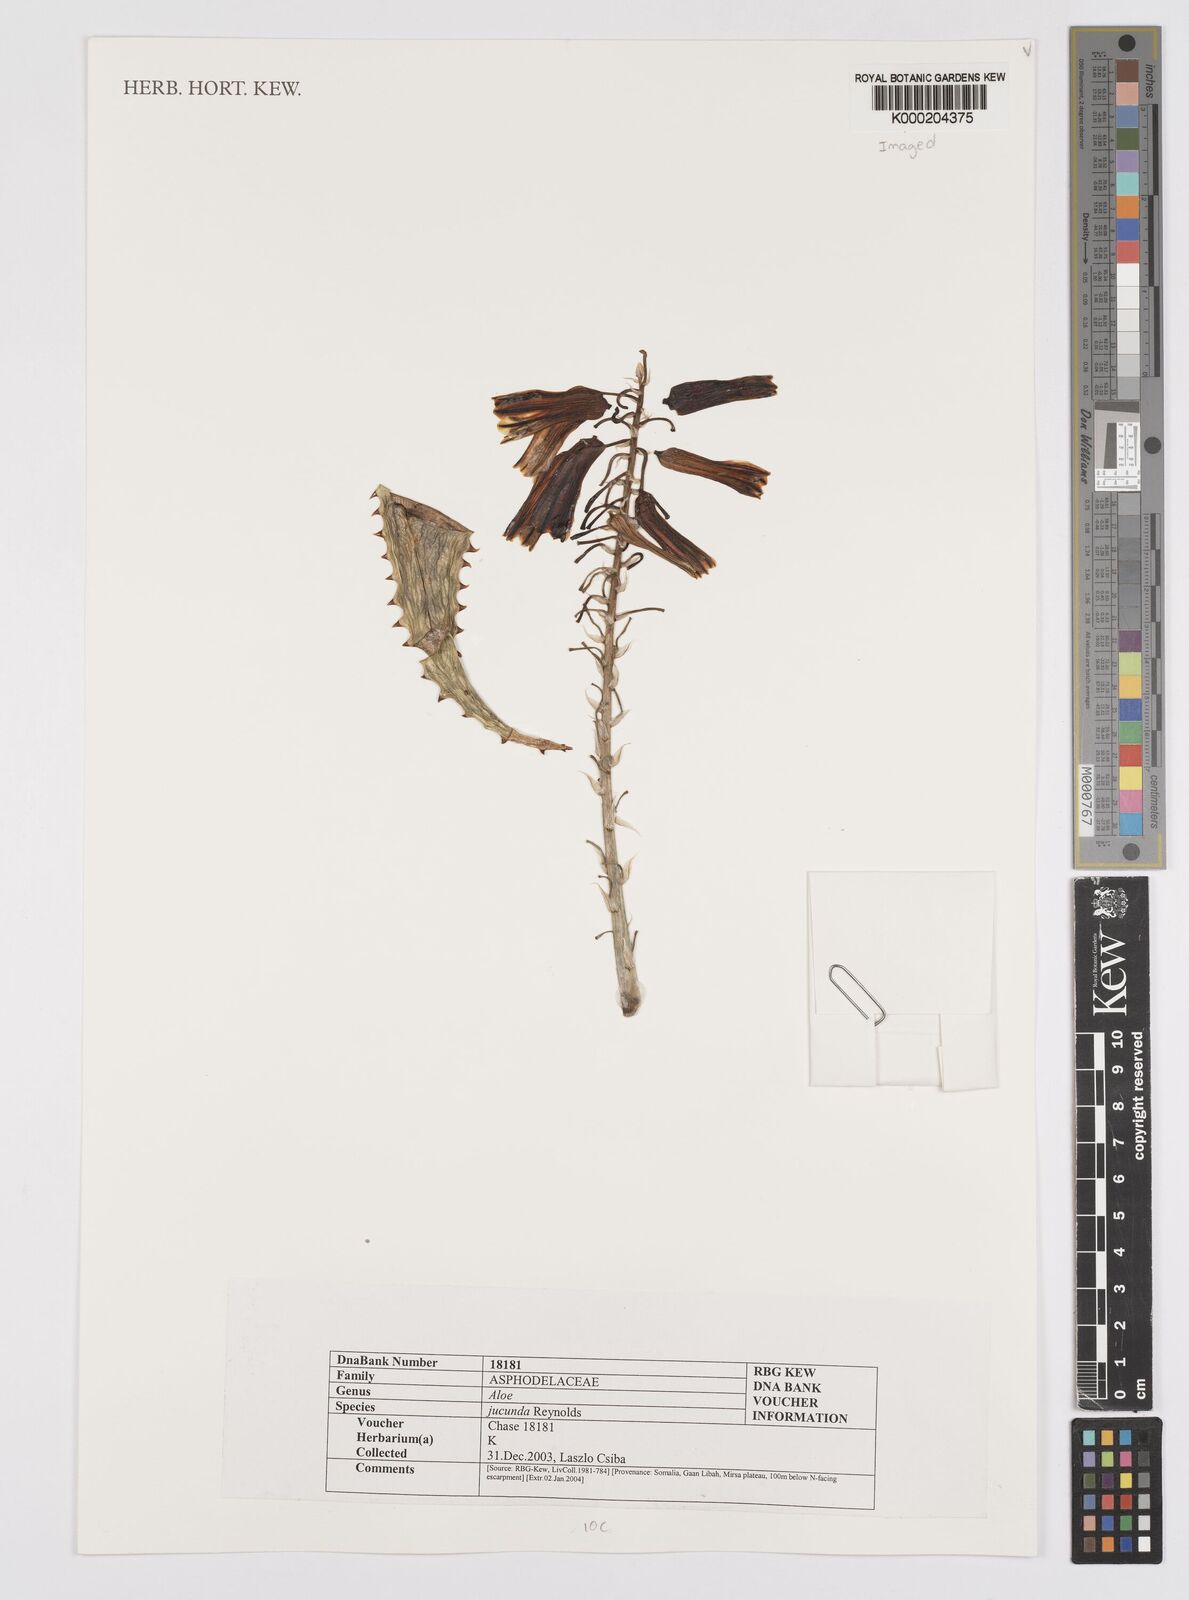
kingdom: Plantae
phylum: Tracheophyta
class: Liliopsida
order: Asparagales
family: Asphodelaceae
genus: Aloe
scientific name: Aloe jucunda
